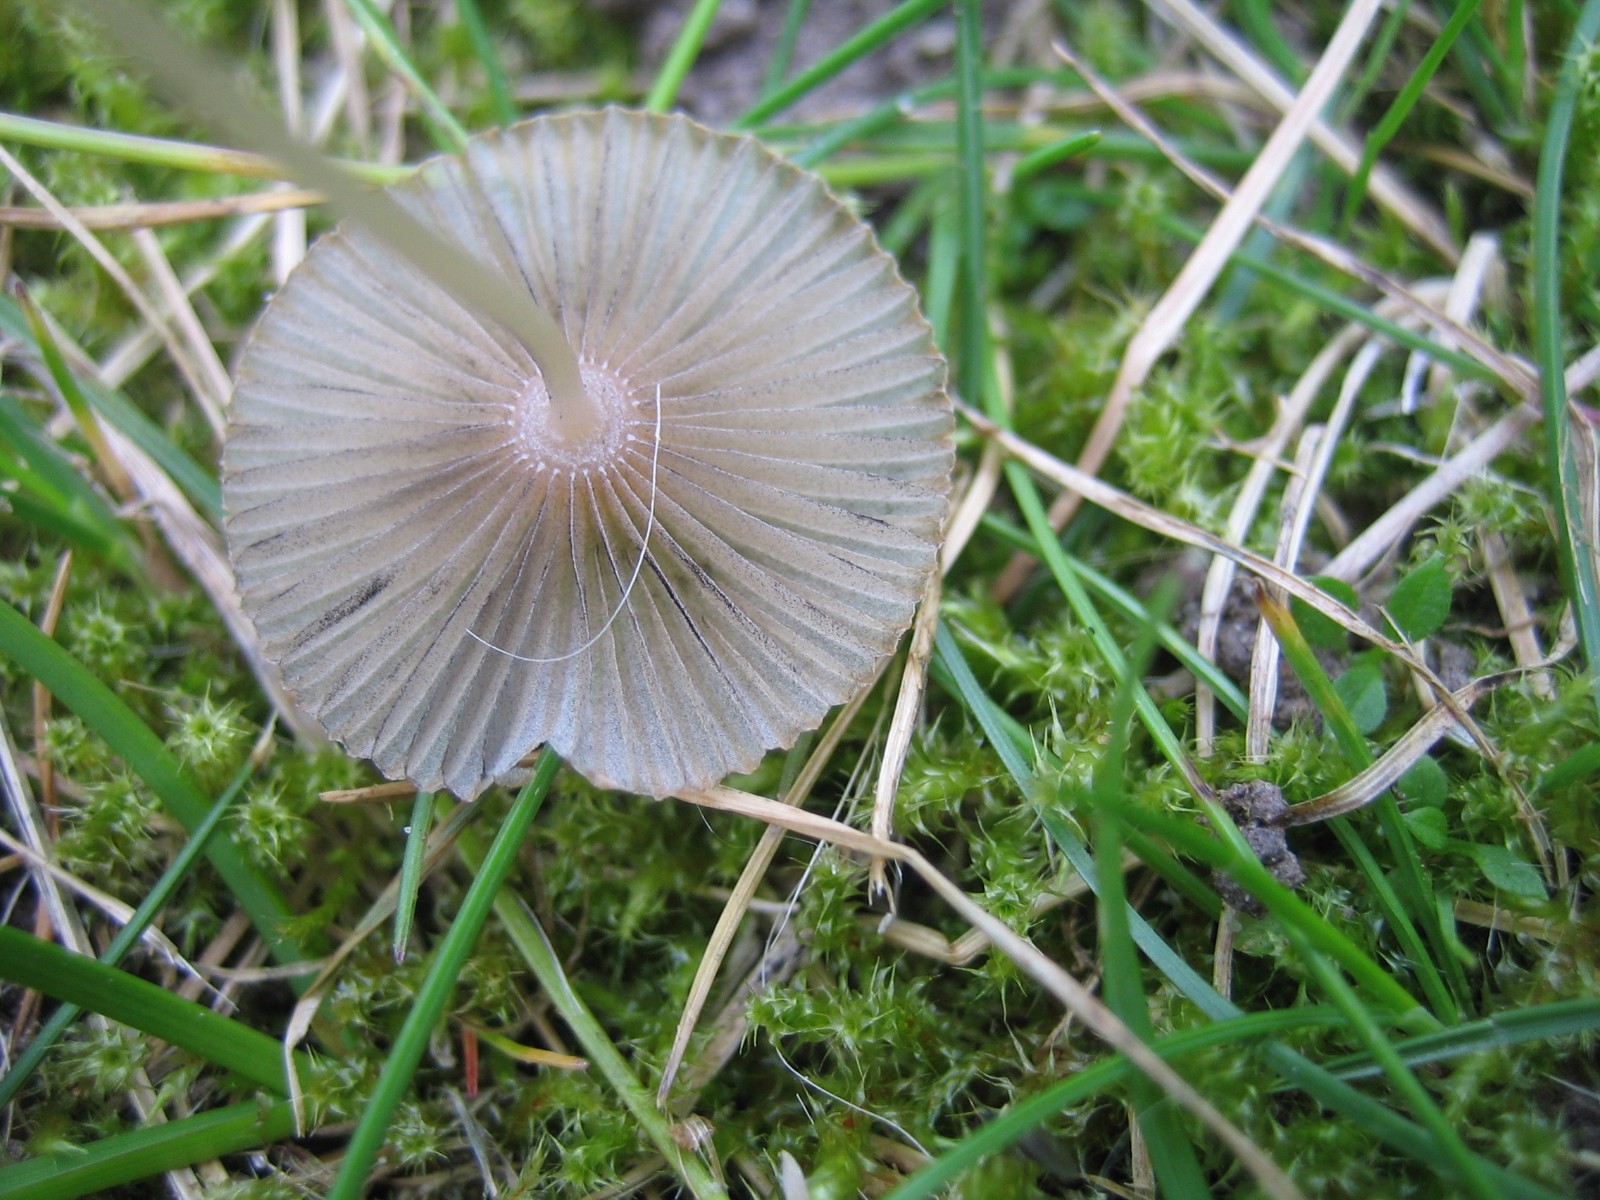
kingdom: Fungi
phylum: Basidiomycota
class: Agaricomycetes
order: Agaricales
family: Psathyrellaceae
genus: Parasola
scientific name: Parasola
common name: hjulhat
